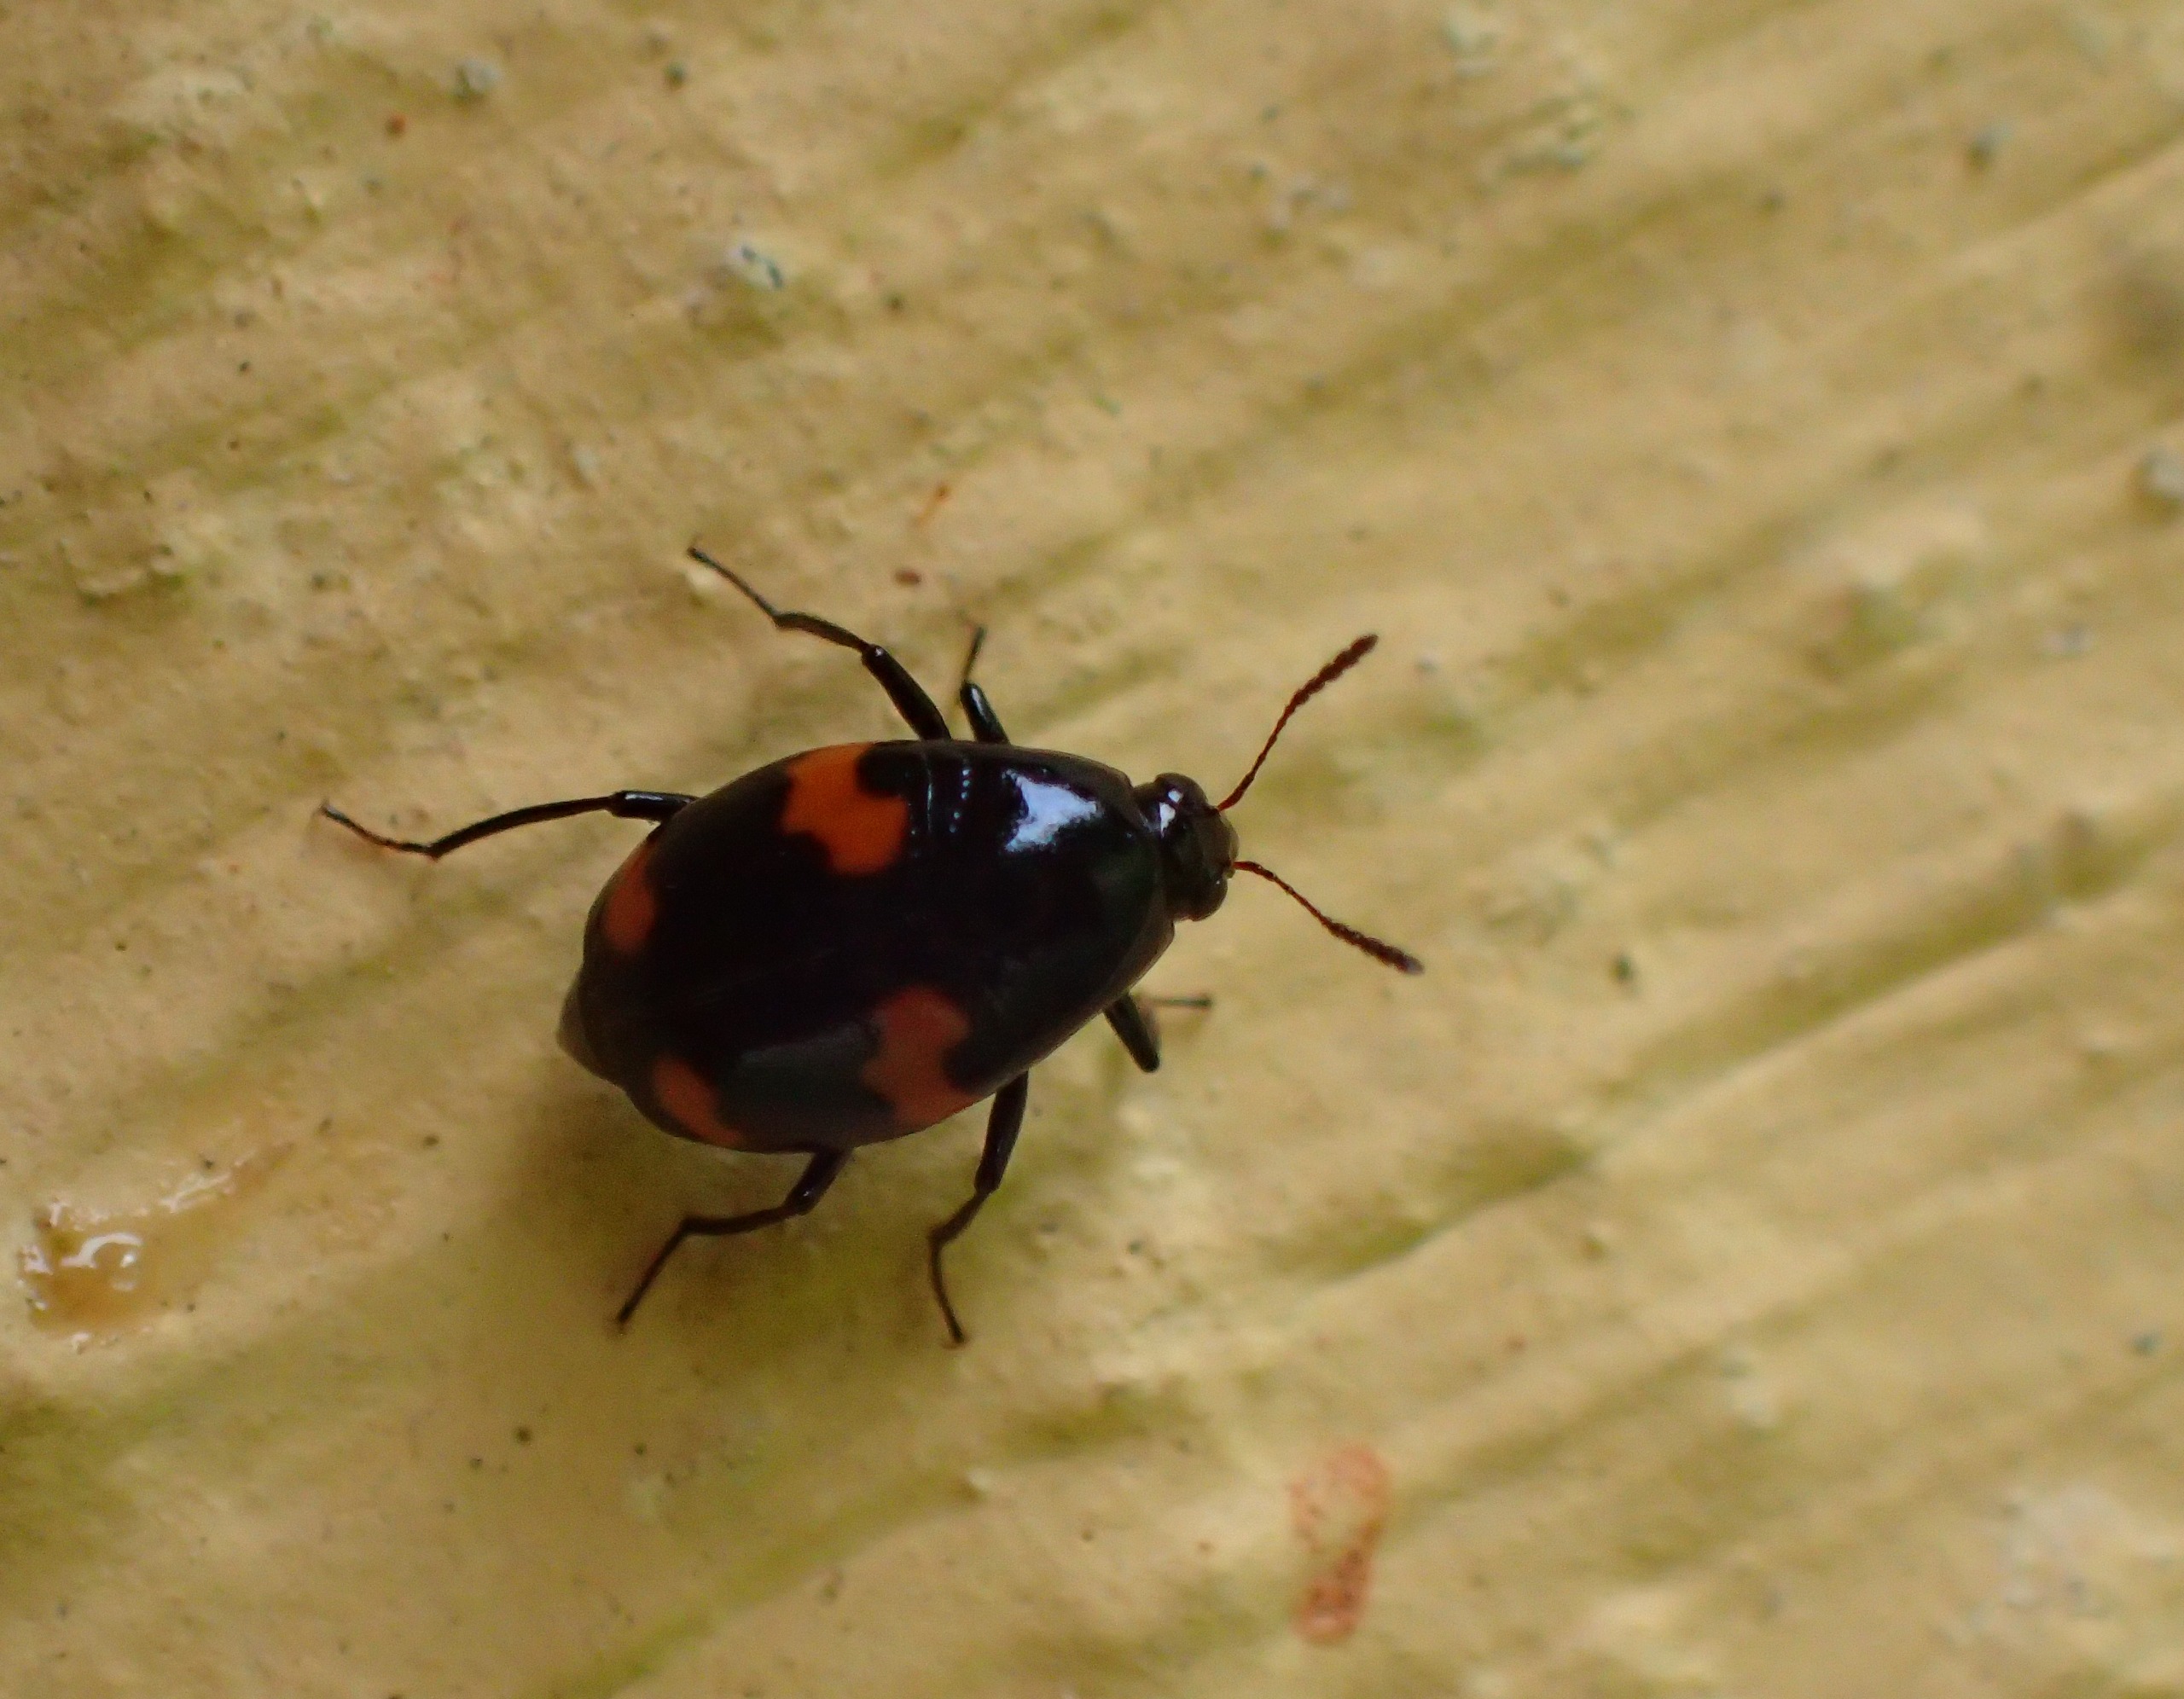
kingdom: Animalia
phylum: Arthropoda
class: Insecta
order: Coleoptera
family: Staphylinidae
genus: Scaphidium
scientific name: Scaphidium quadrimaculatum
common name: Dråberovbille
